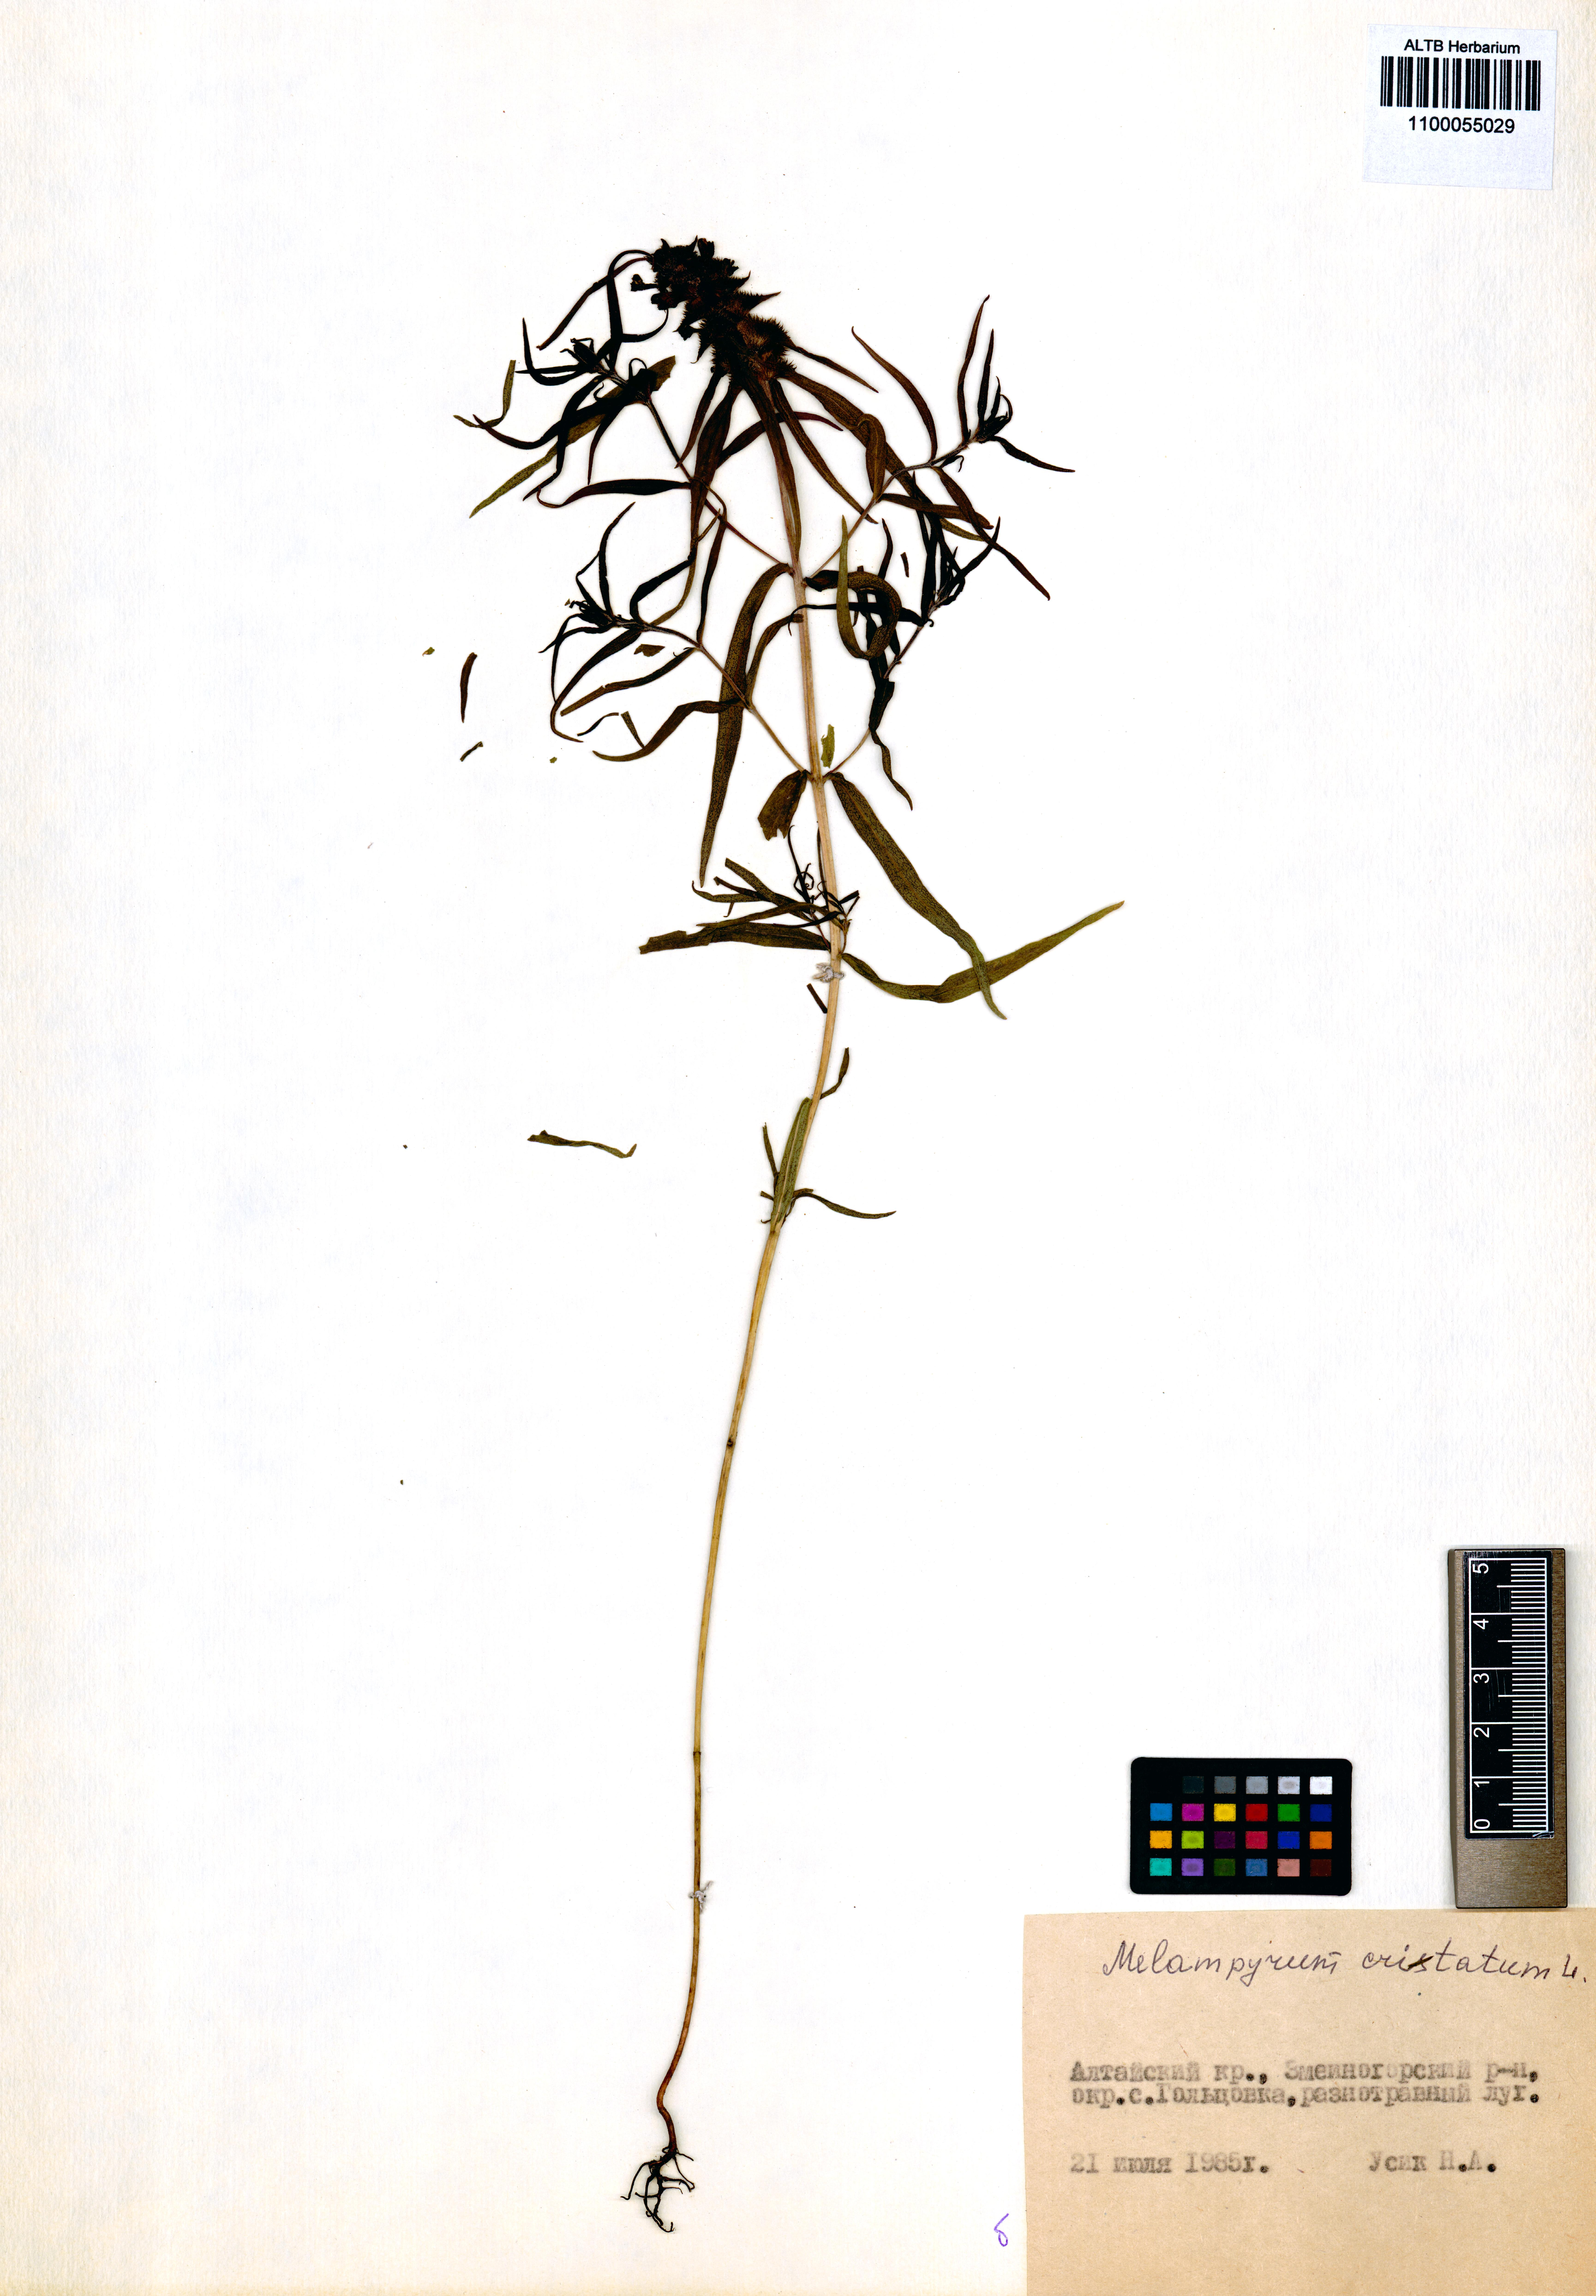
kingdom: Plantae
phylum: Tracheophyta
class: Magnoliopsida
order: Lamiales
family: Orobanchaceae
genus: Melampyrum
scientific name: Melampyrum cristatum
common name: Crested cow-wheat
